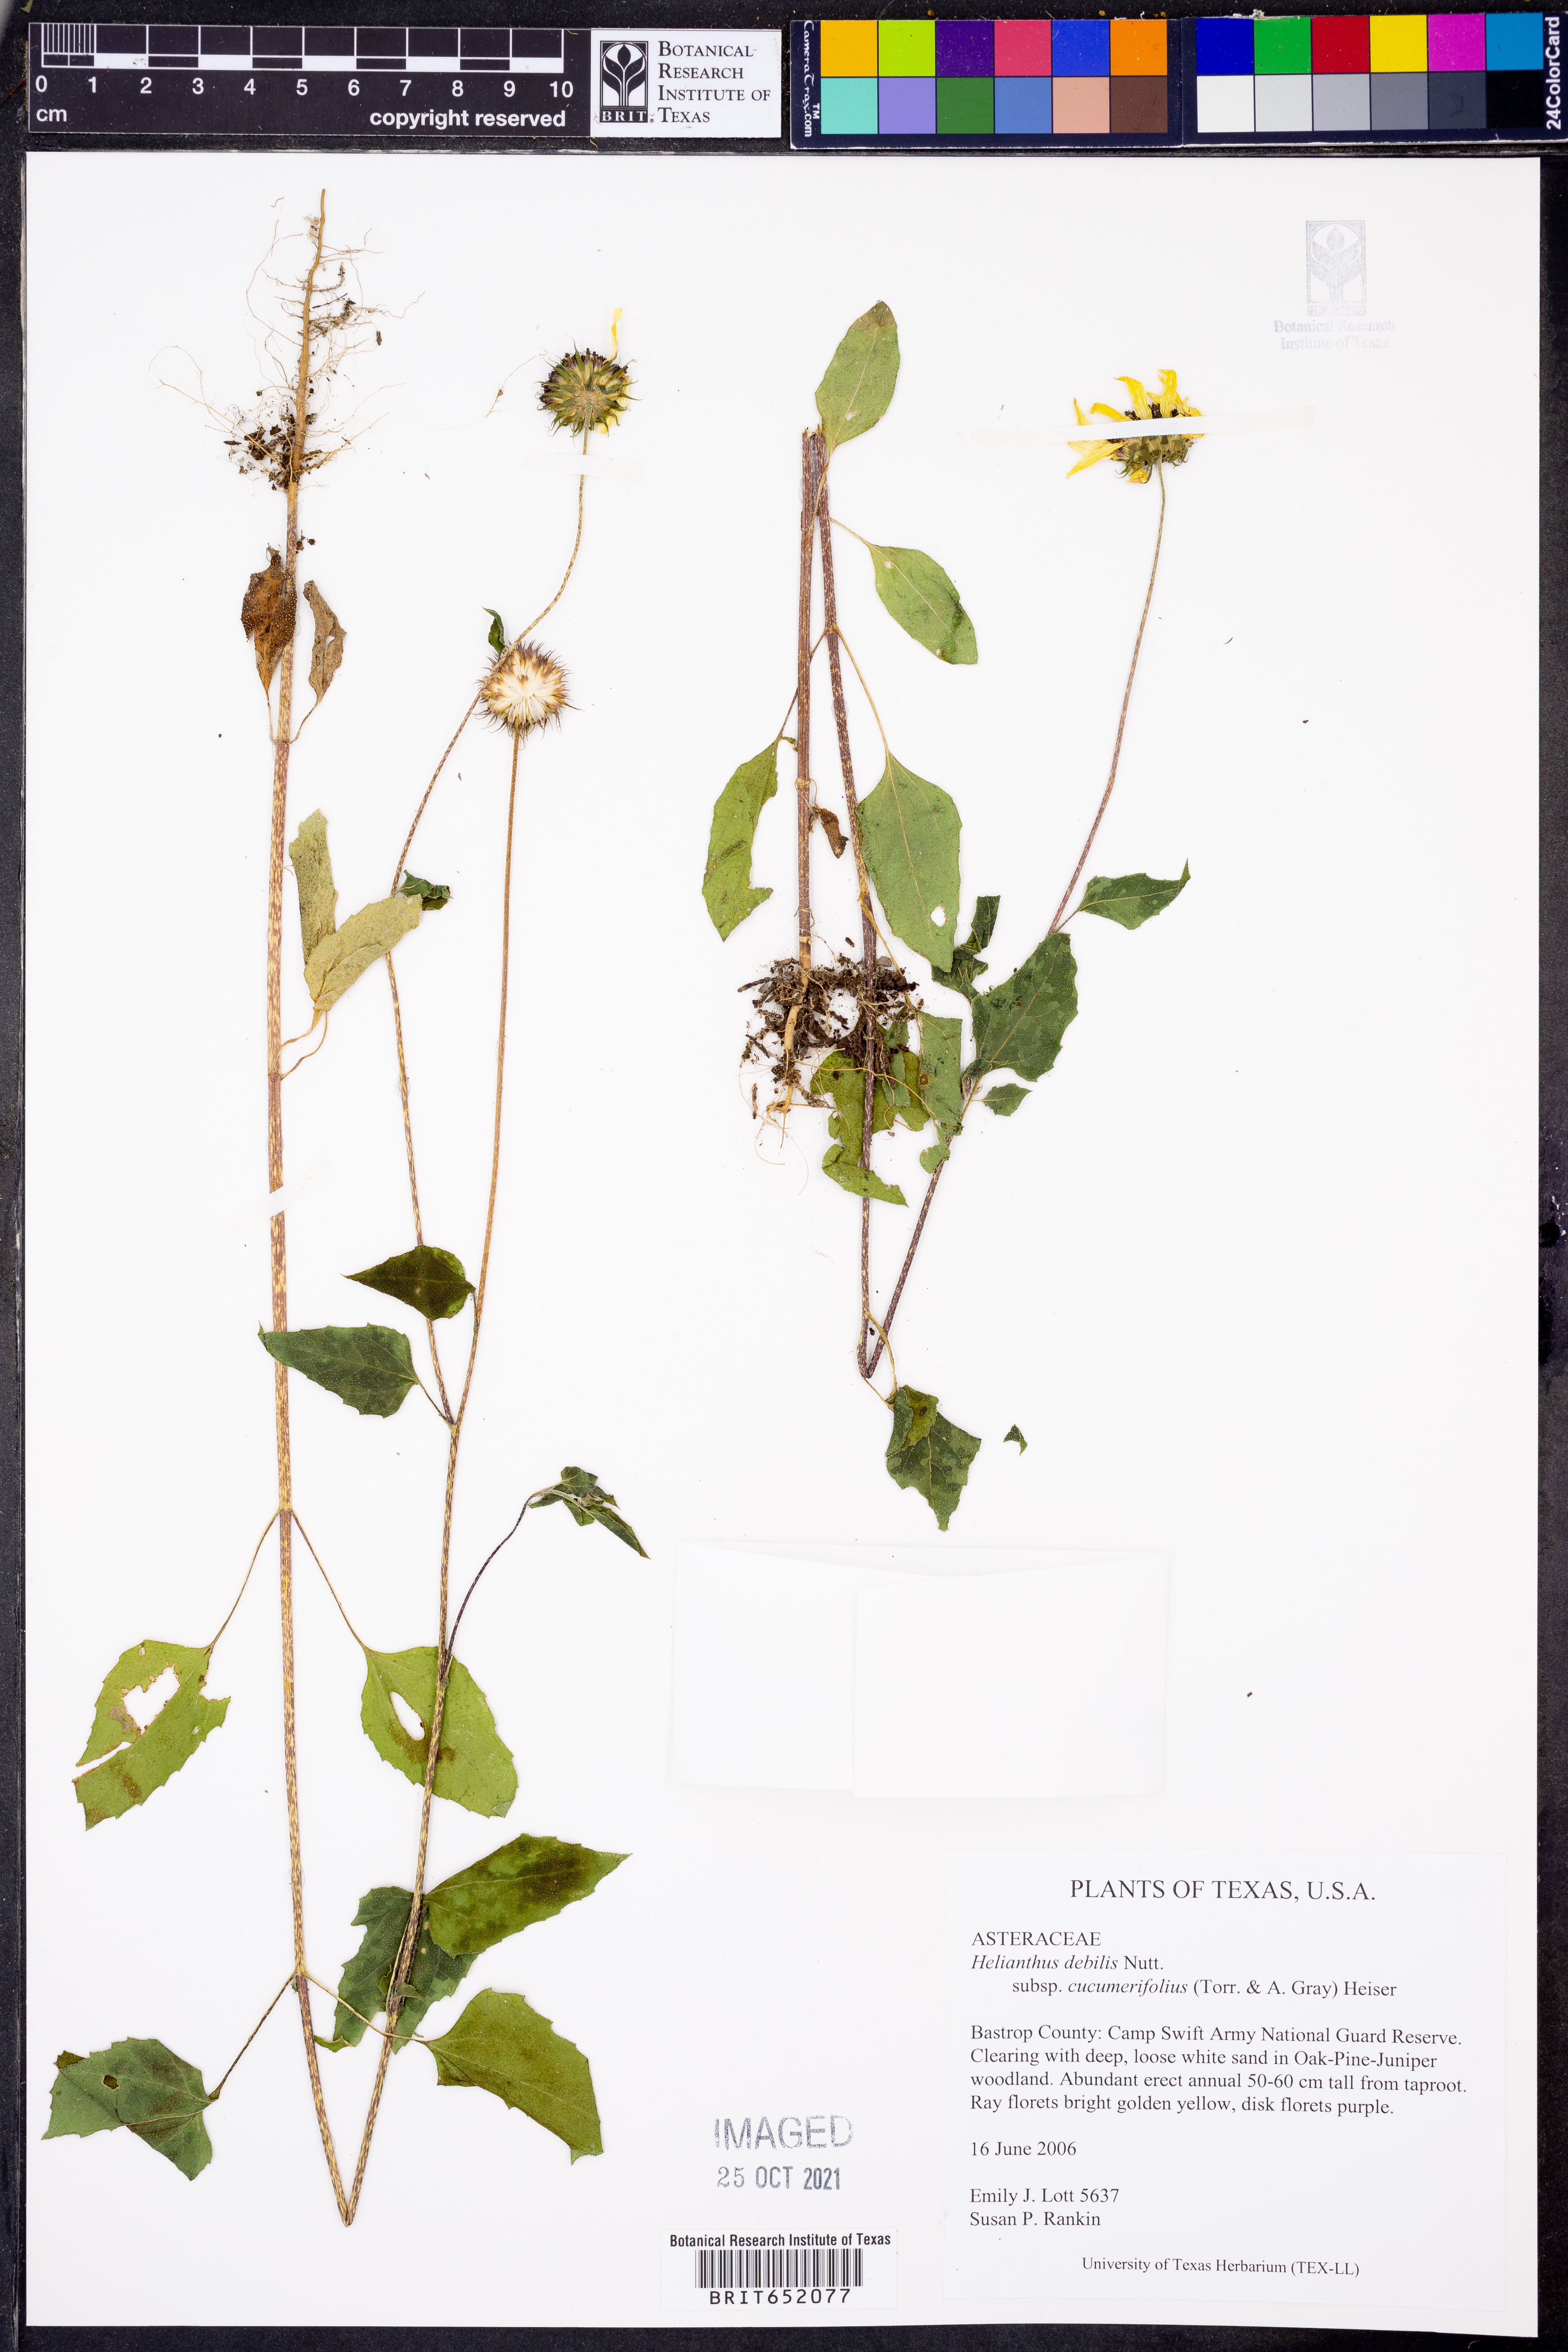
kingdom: Plantae
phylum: Tracheophyta
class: Magnoliopsida
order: Asterales
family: Asteraceae
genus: Helianthus
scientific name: Helianthus debilis
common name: Weak sunflower
